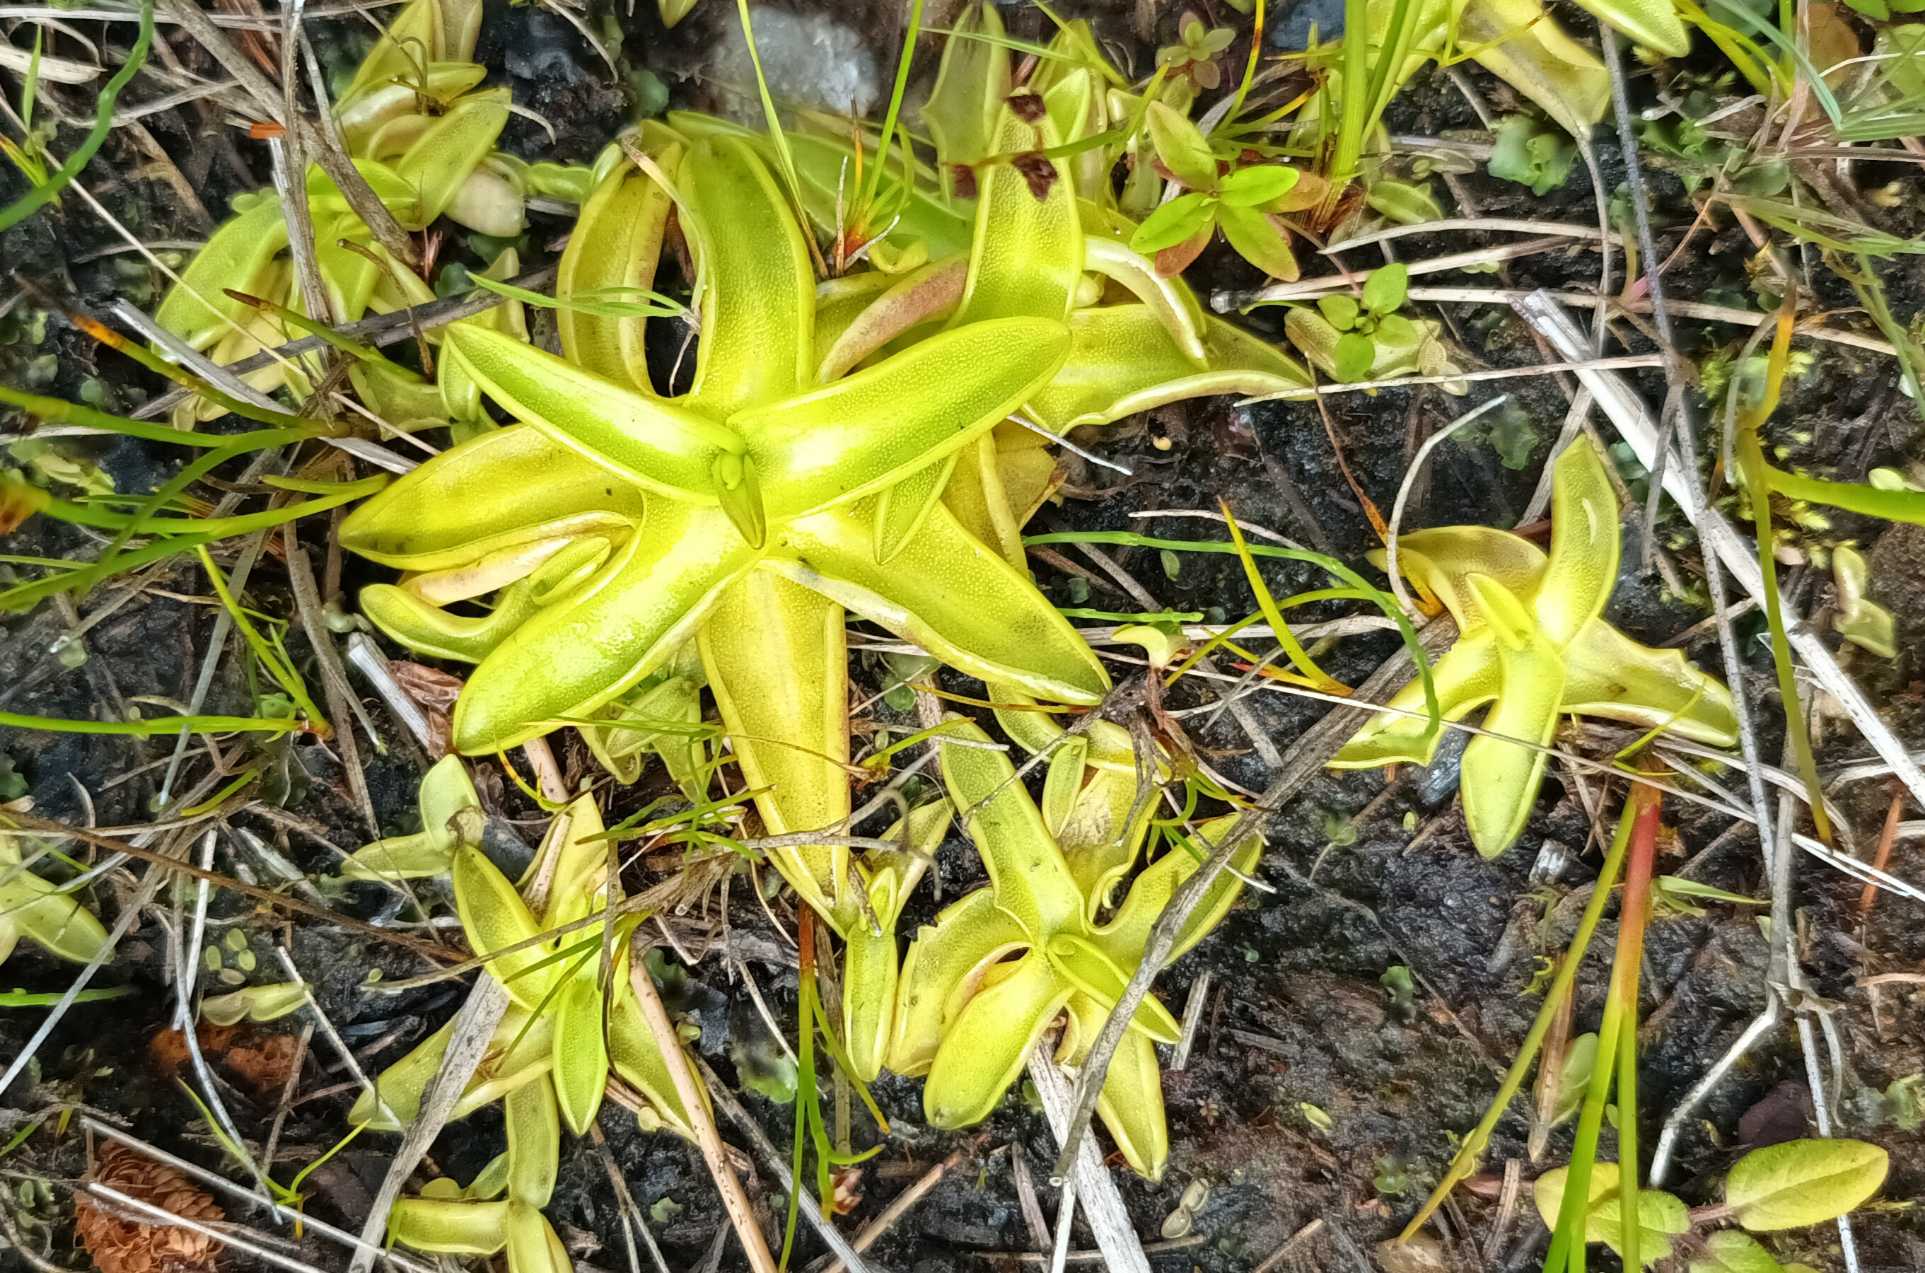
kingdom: Plantae
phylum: Tracheophyta
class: Magnoliopsida
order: Lamiales
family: Lentibulariaceae
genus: Pinguicula
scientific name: Pinguicula vulgaris
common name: Vibefedt
